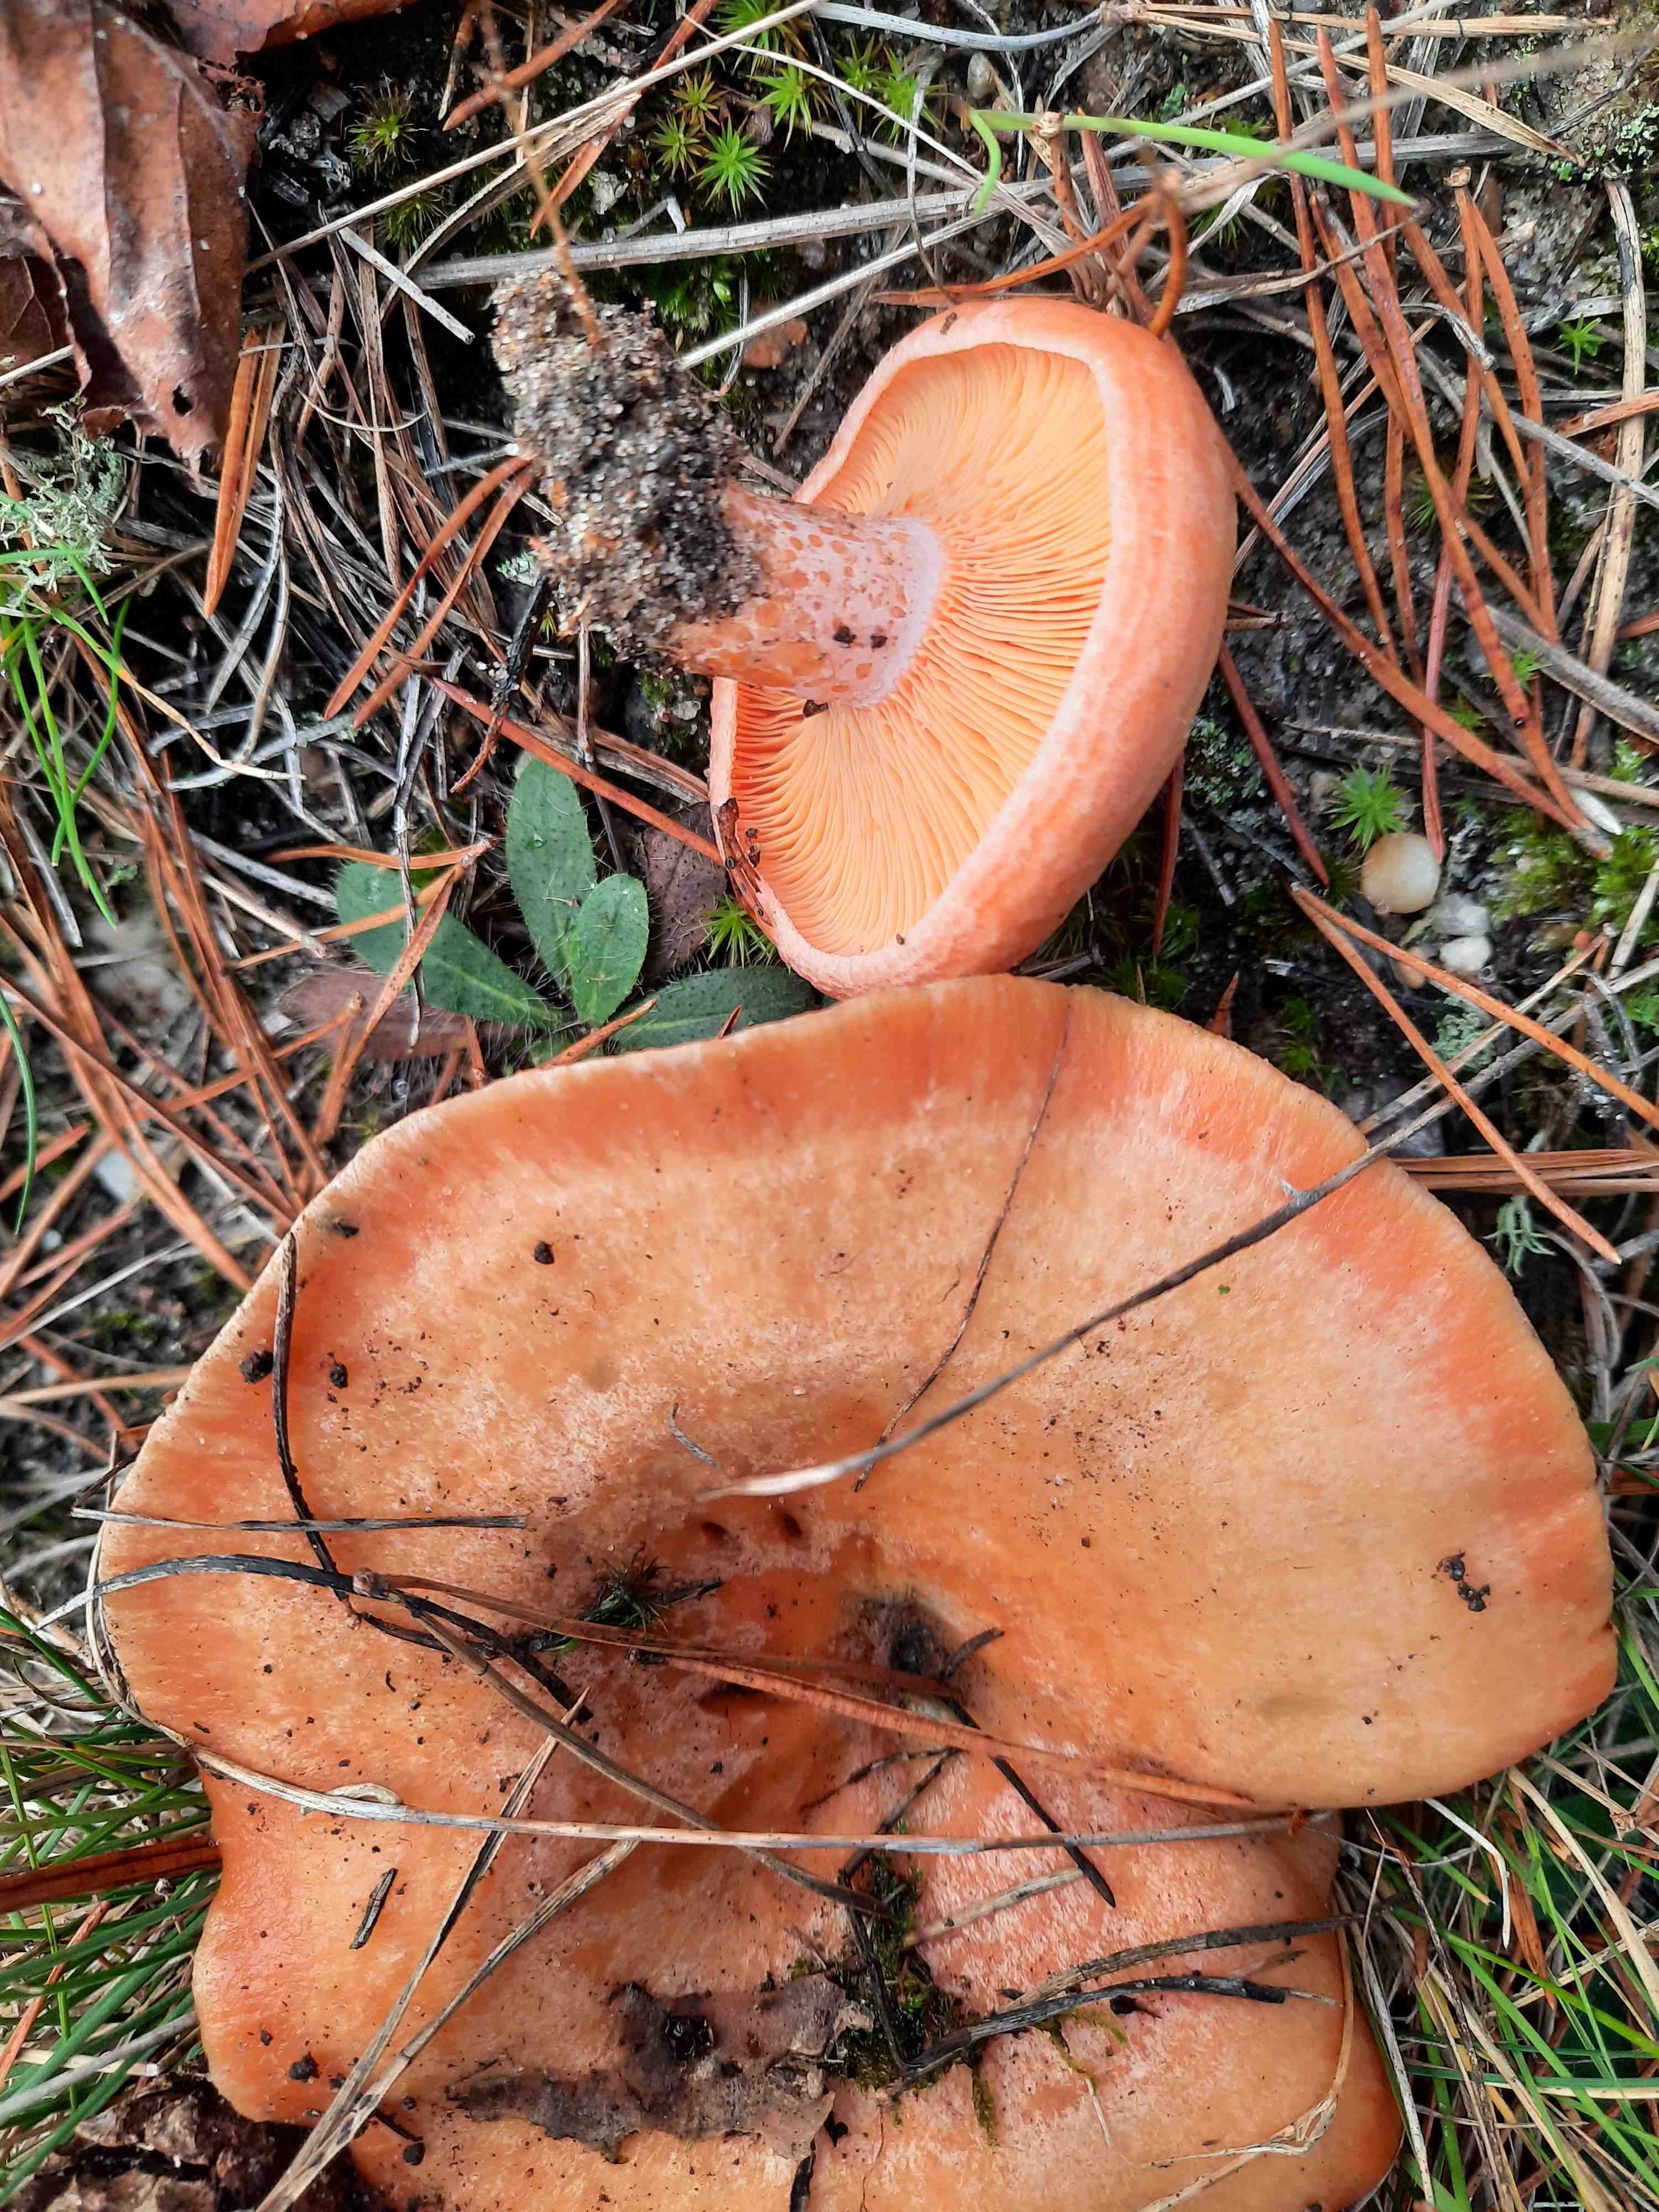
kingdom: Fungi
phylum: Basidiomycota
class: Agaricomycetes
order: Russulales
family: Russulaceae
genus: Lactarius
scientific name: Lactarius deliciosus
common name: velsmagende mælkehat
